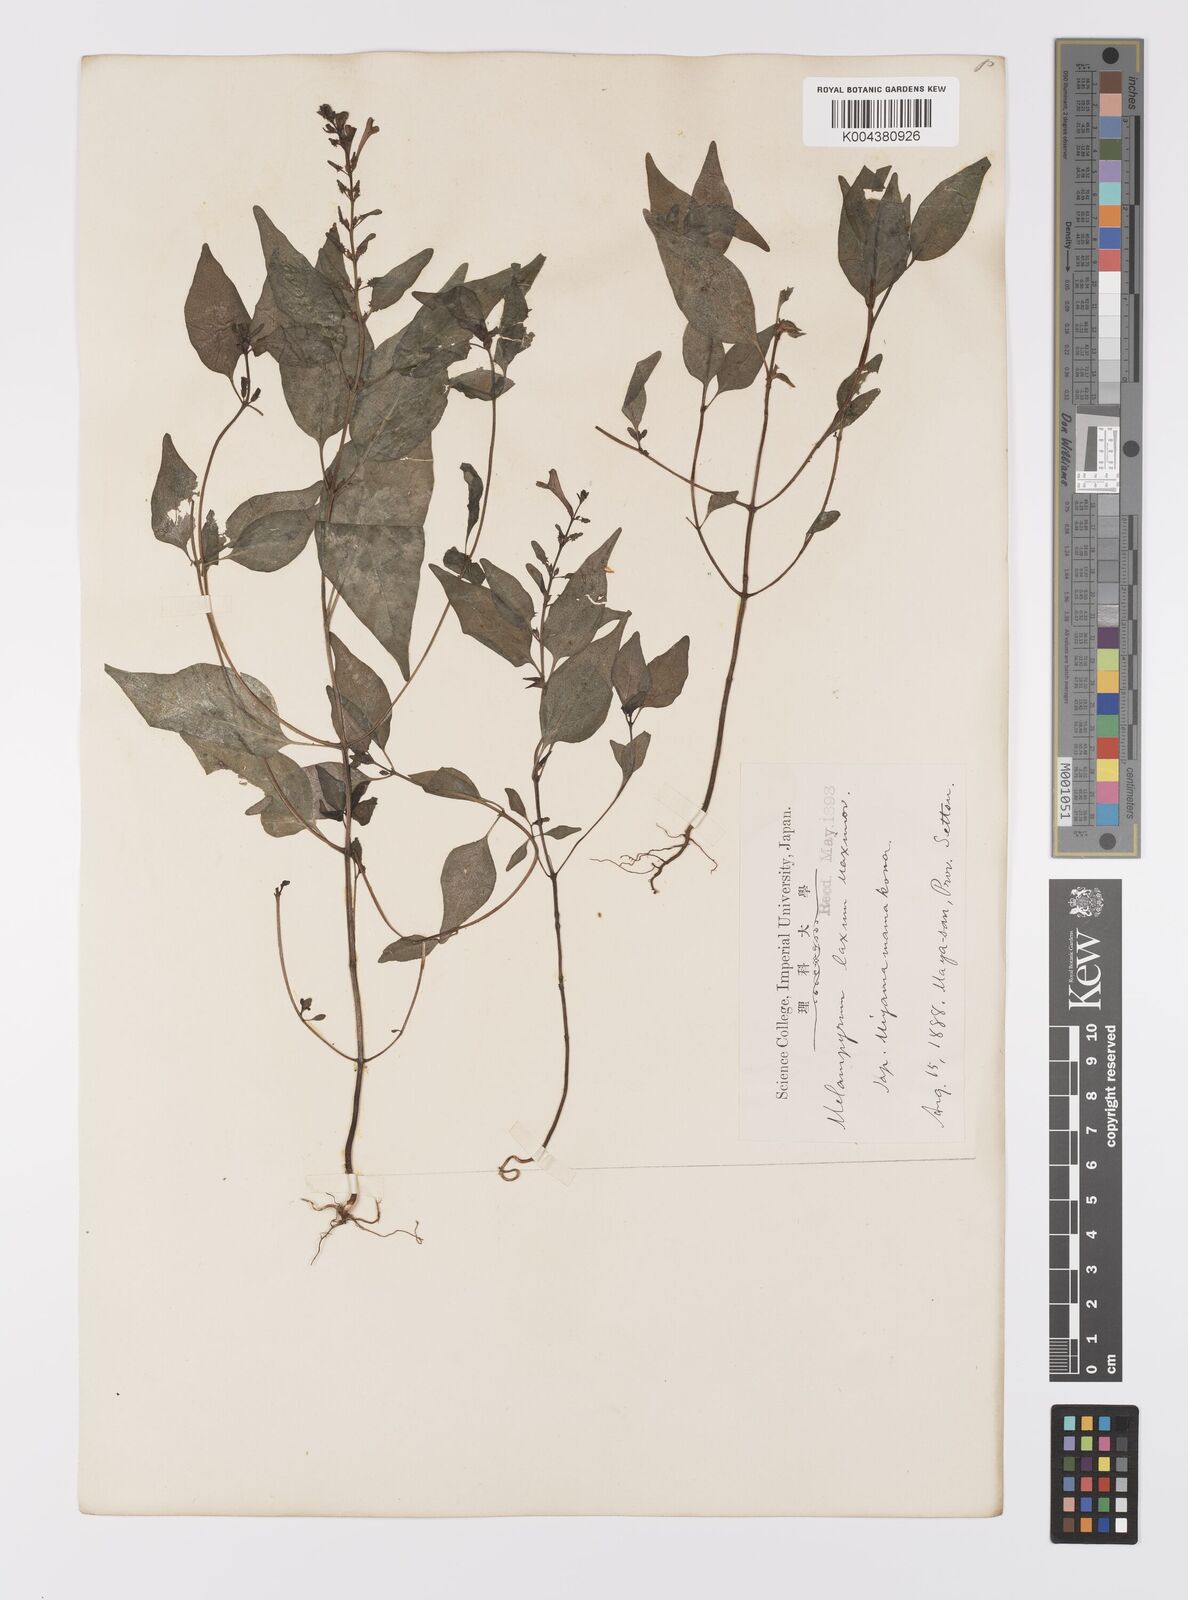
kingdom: Plantae
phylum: Tracheophyta
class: Magnoliopsida
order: Lamiales
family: Orobanchaceae
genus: Melampyrum
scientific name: Melampyrum laxum
